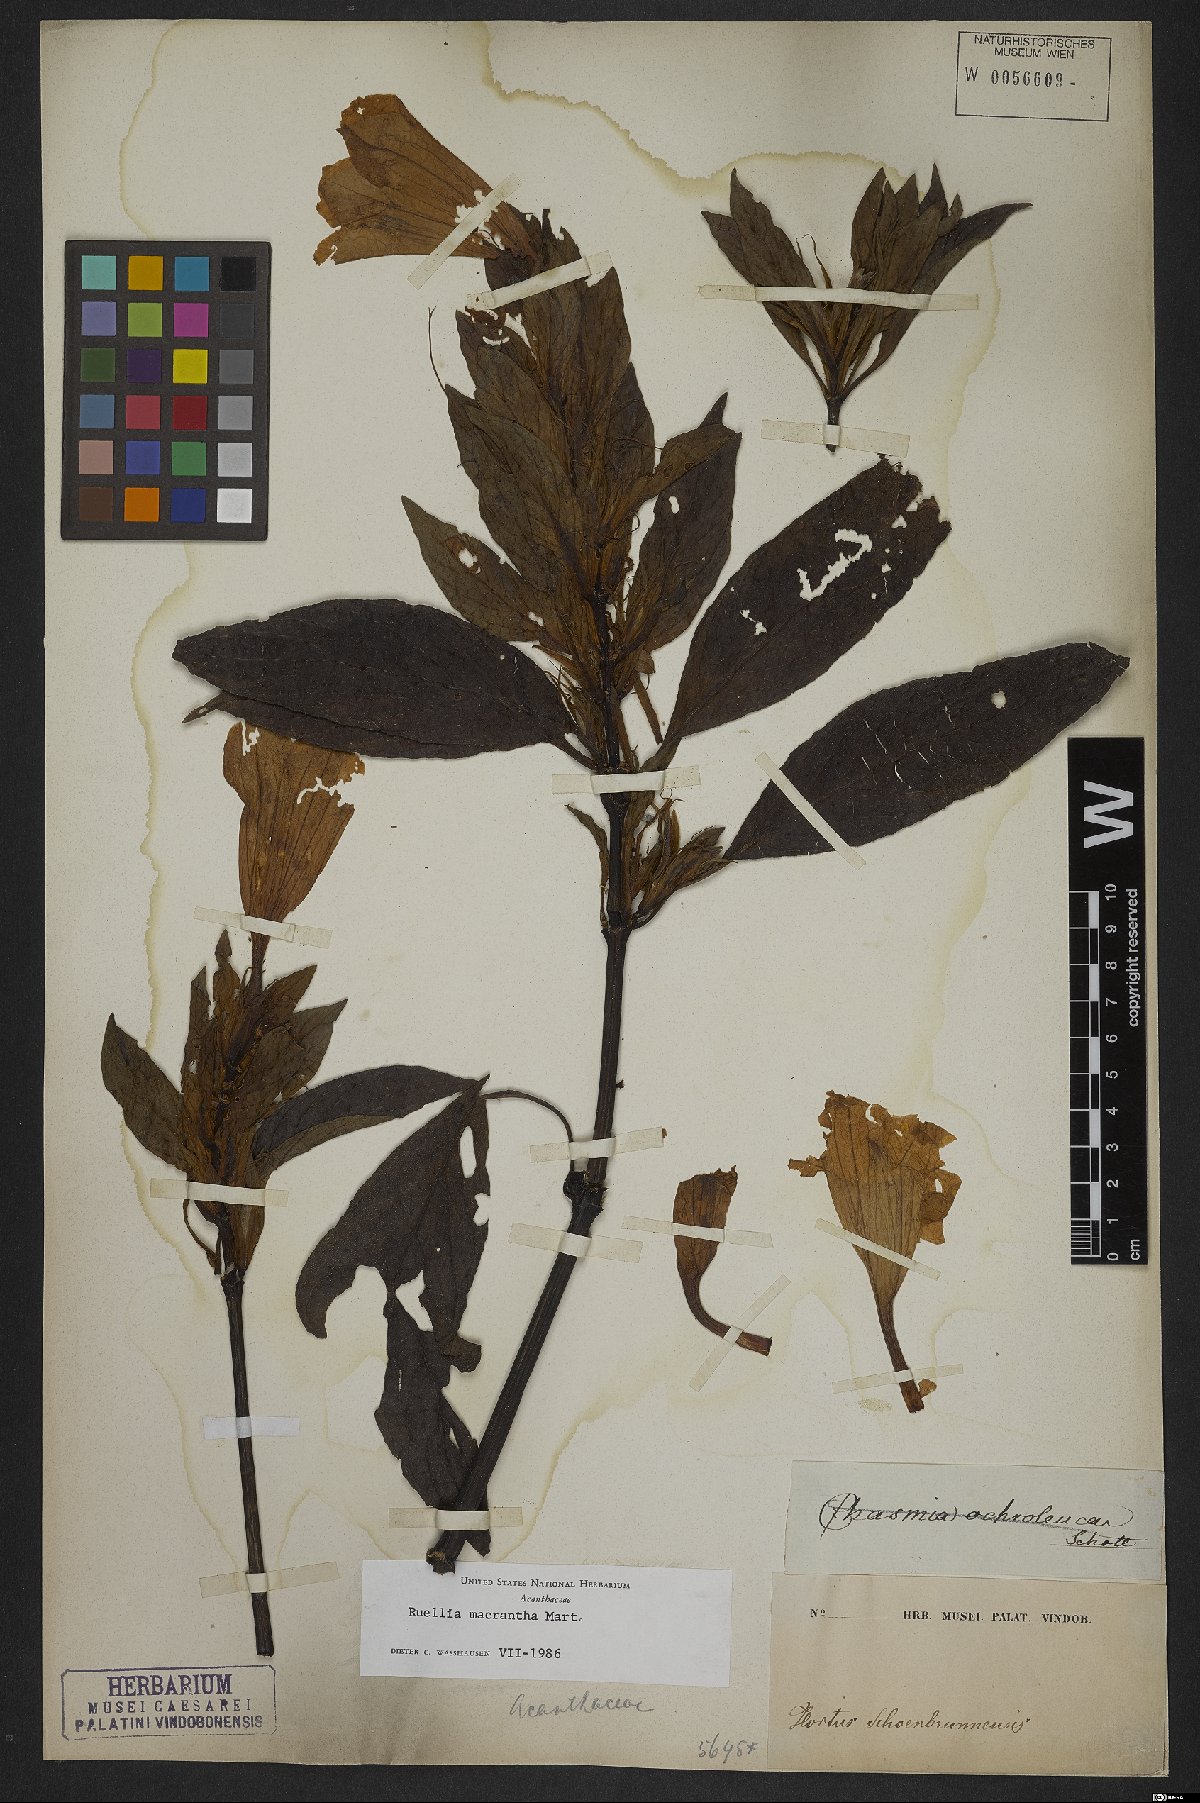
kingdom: Plantae
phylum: Tracheophyta
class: Magnoliopsida
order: Lamiales
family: Acanthaceae
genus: Ruellia
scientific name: Ruellia laxa
